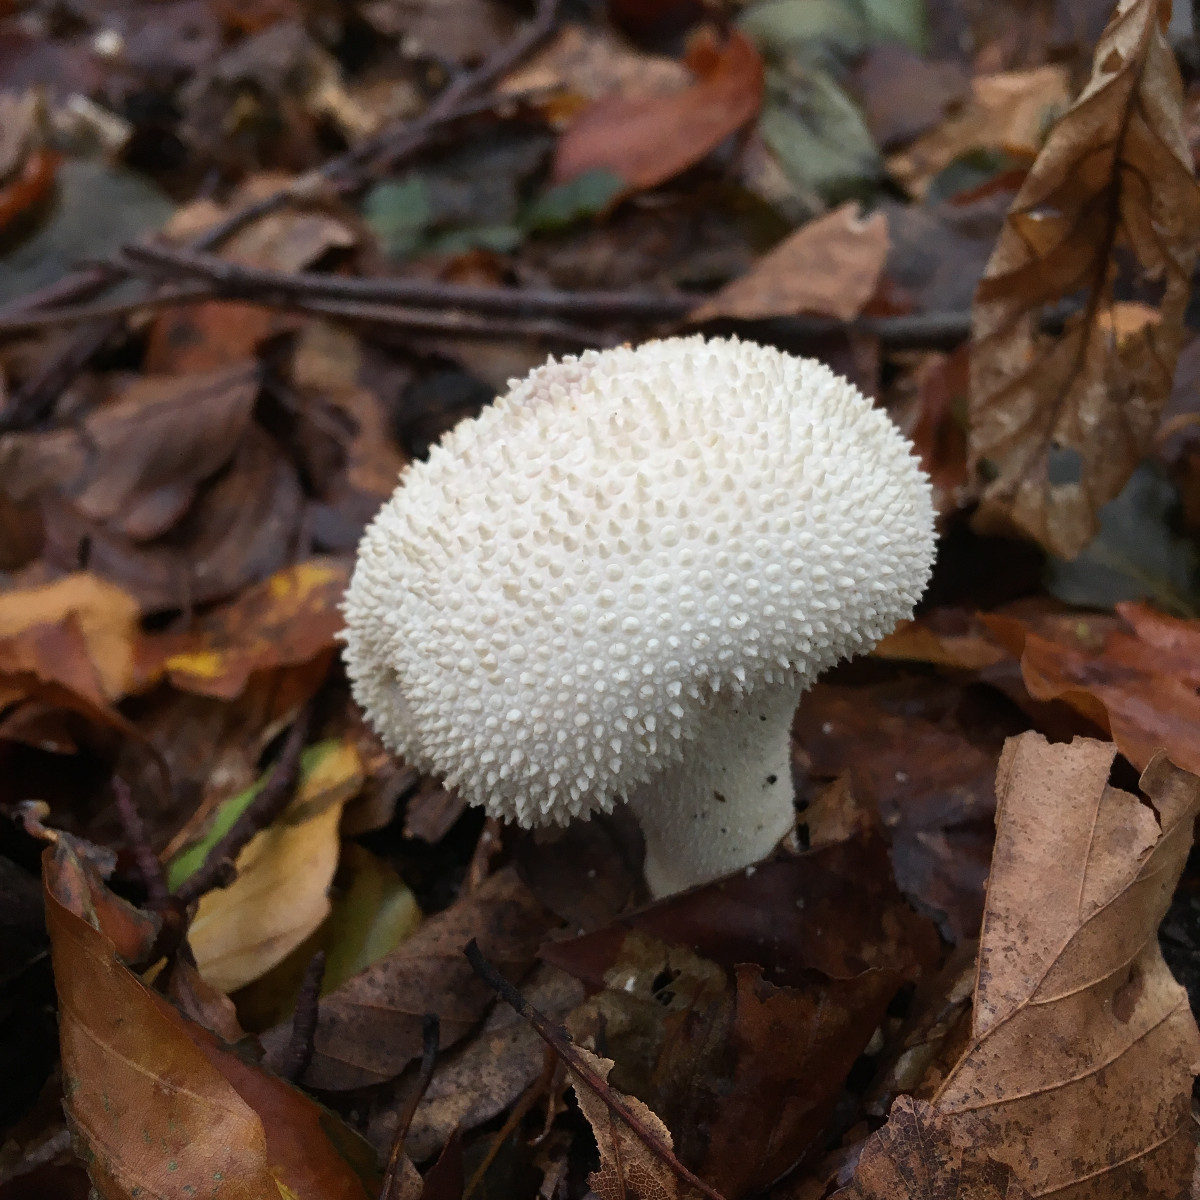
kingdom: Fungi
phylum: Basidiomycota
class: Agaricomycetes
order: Agaricales
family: Lycoperdaceae
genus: Lycoperdon
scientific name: Lycoperdon perlatum
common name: krystal-støvbold
